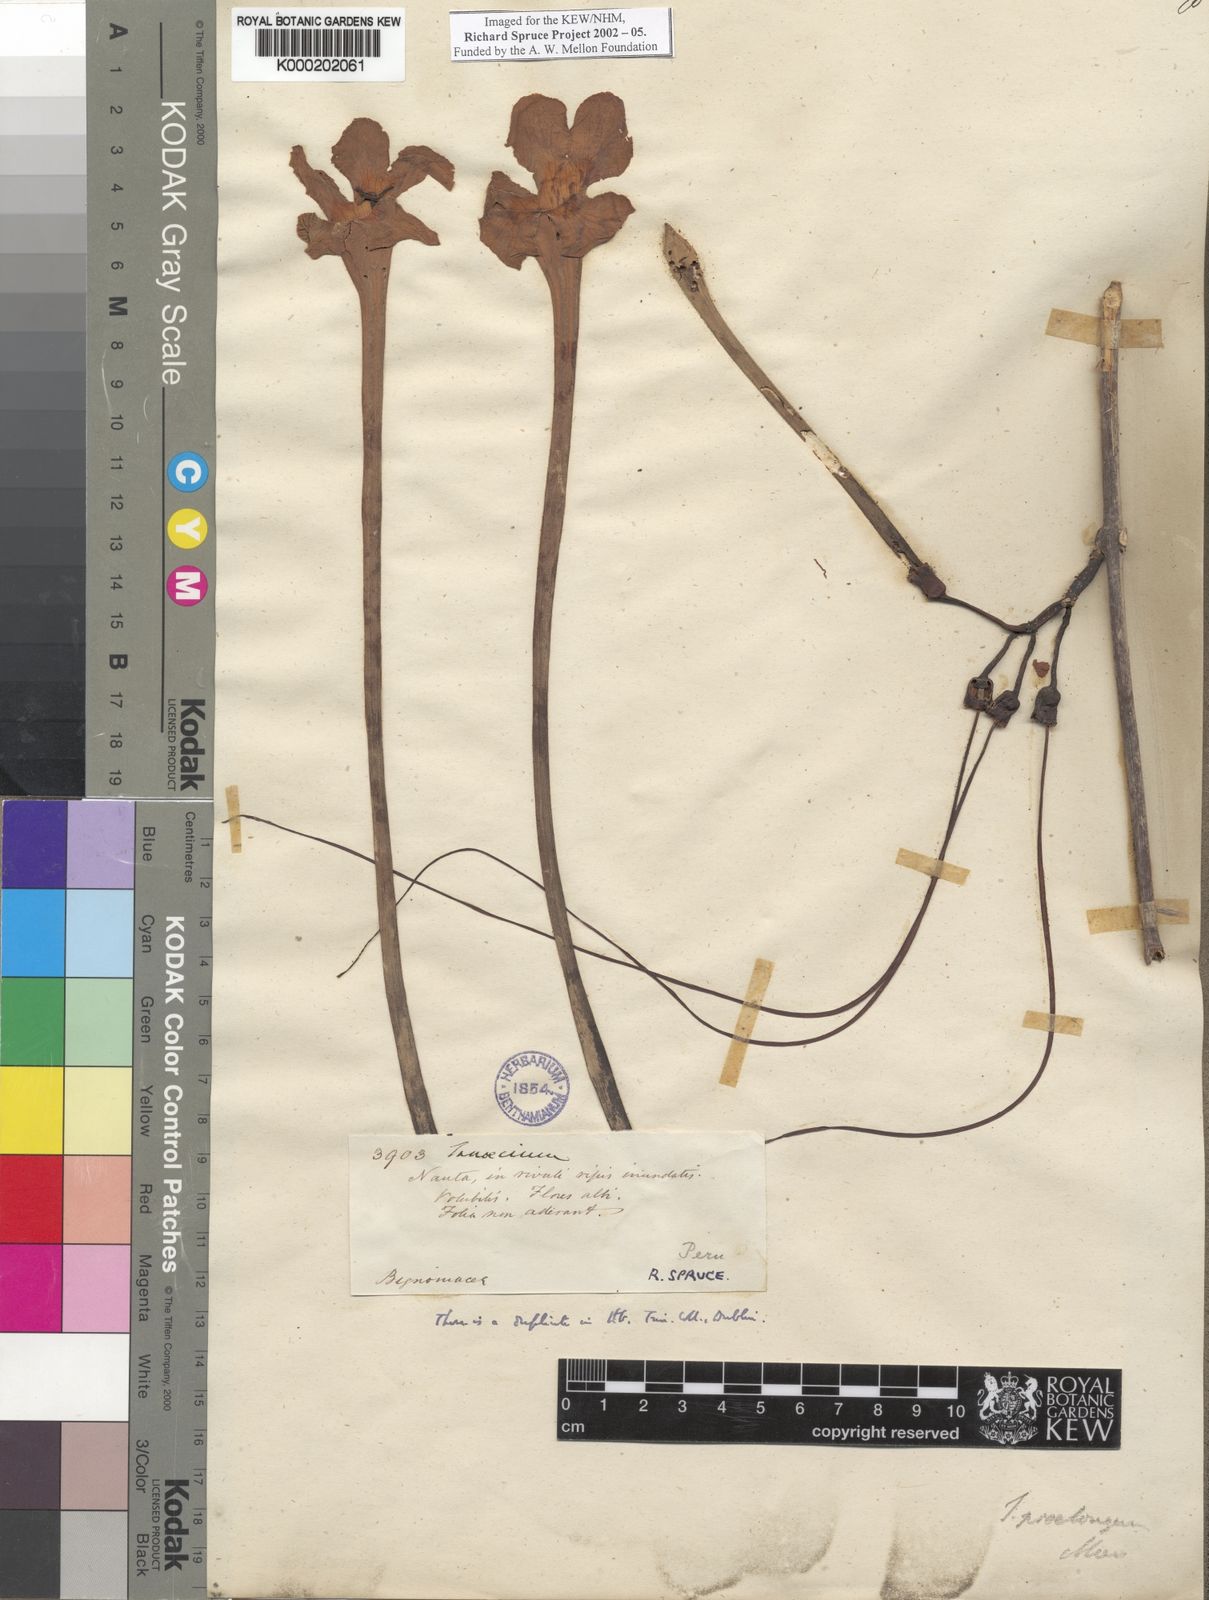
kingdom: Plantae
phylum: Tracheophyta
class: Magnoliopsida
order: Lamiales
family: Bignoniaceae
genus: Tanaecium
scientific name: Tanaecium jaroba
